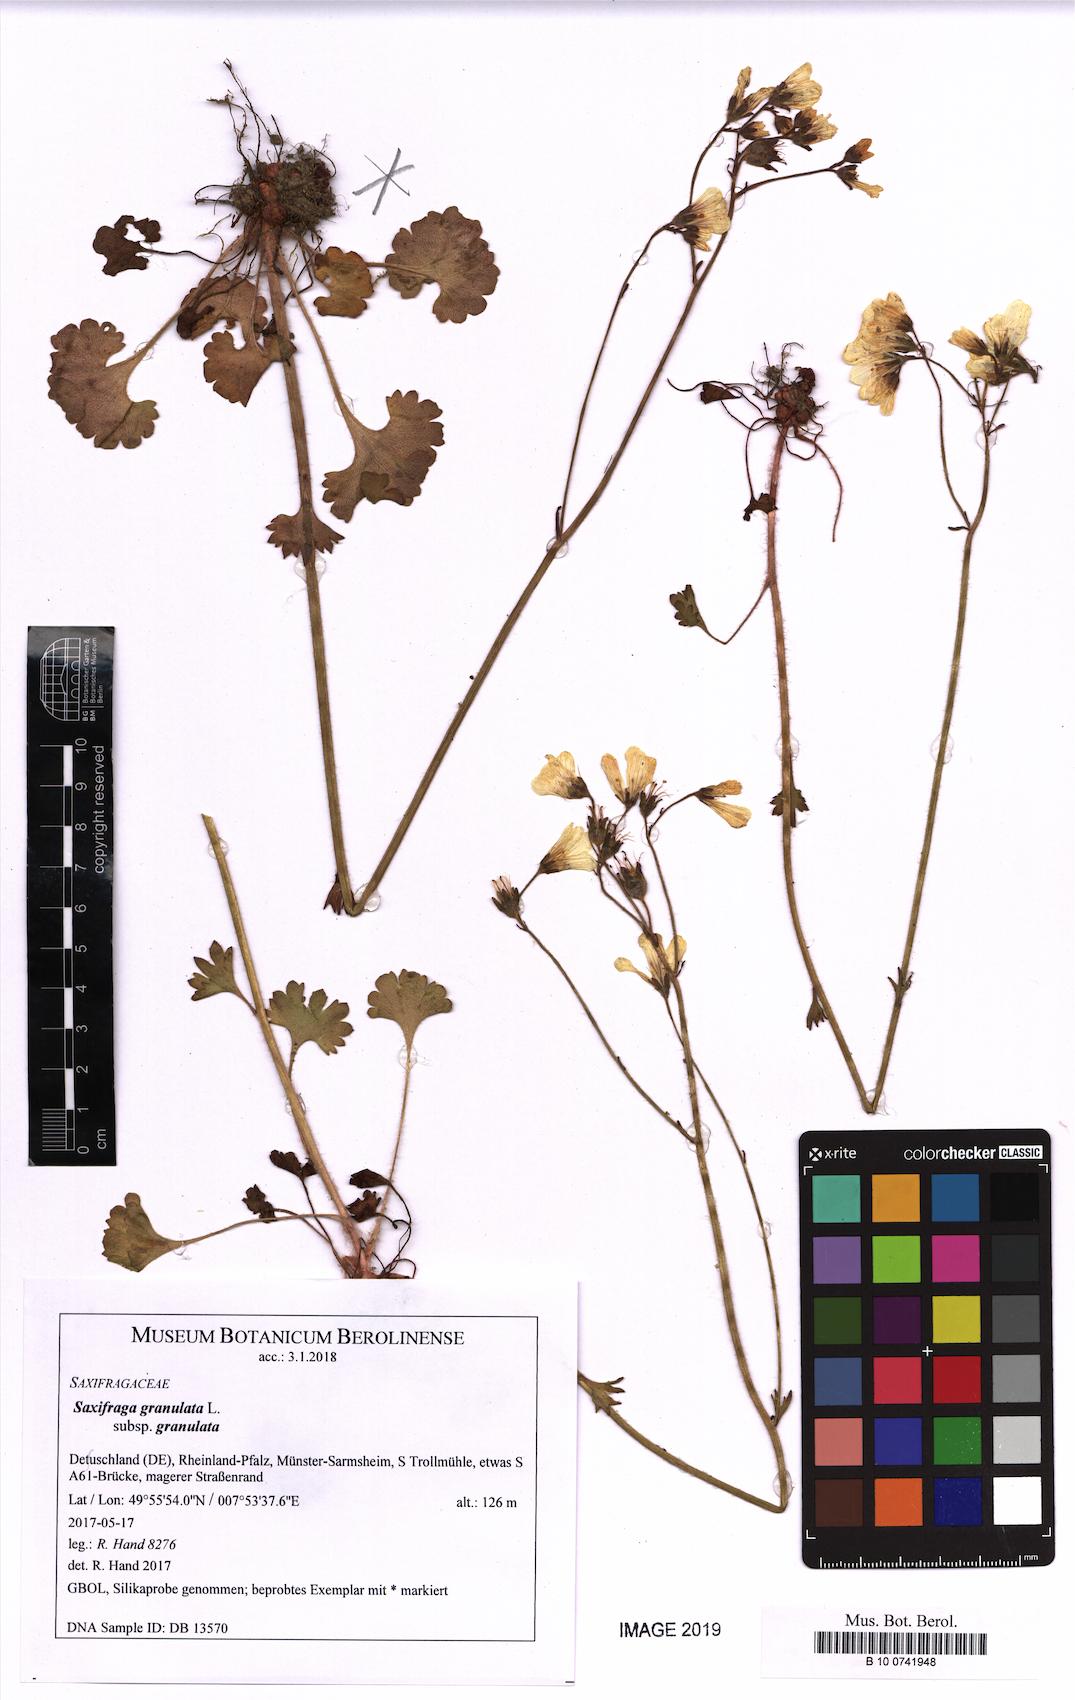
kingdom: Plantae
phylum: Tracheophyta
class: Magnoliopsida
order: Saxifragales
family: Saxifragaceae
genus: Saxifraga
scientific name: Saxifraga granulata
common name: Meadow saxifrage
